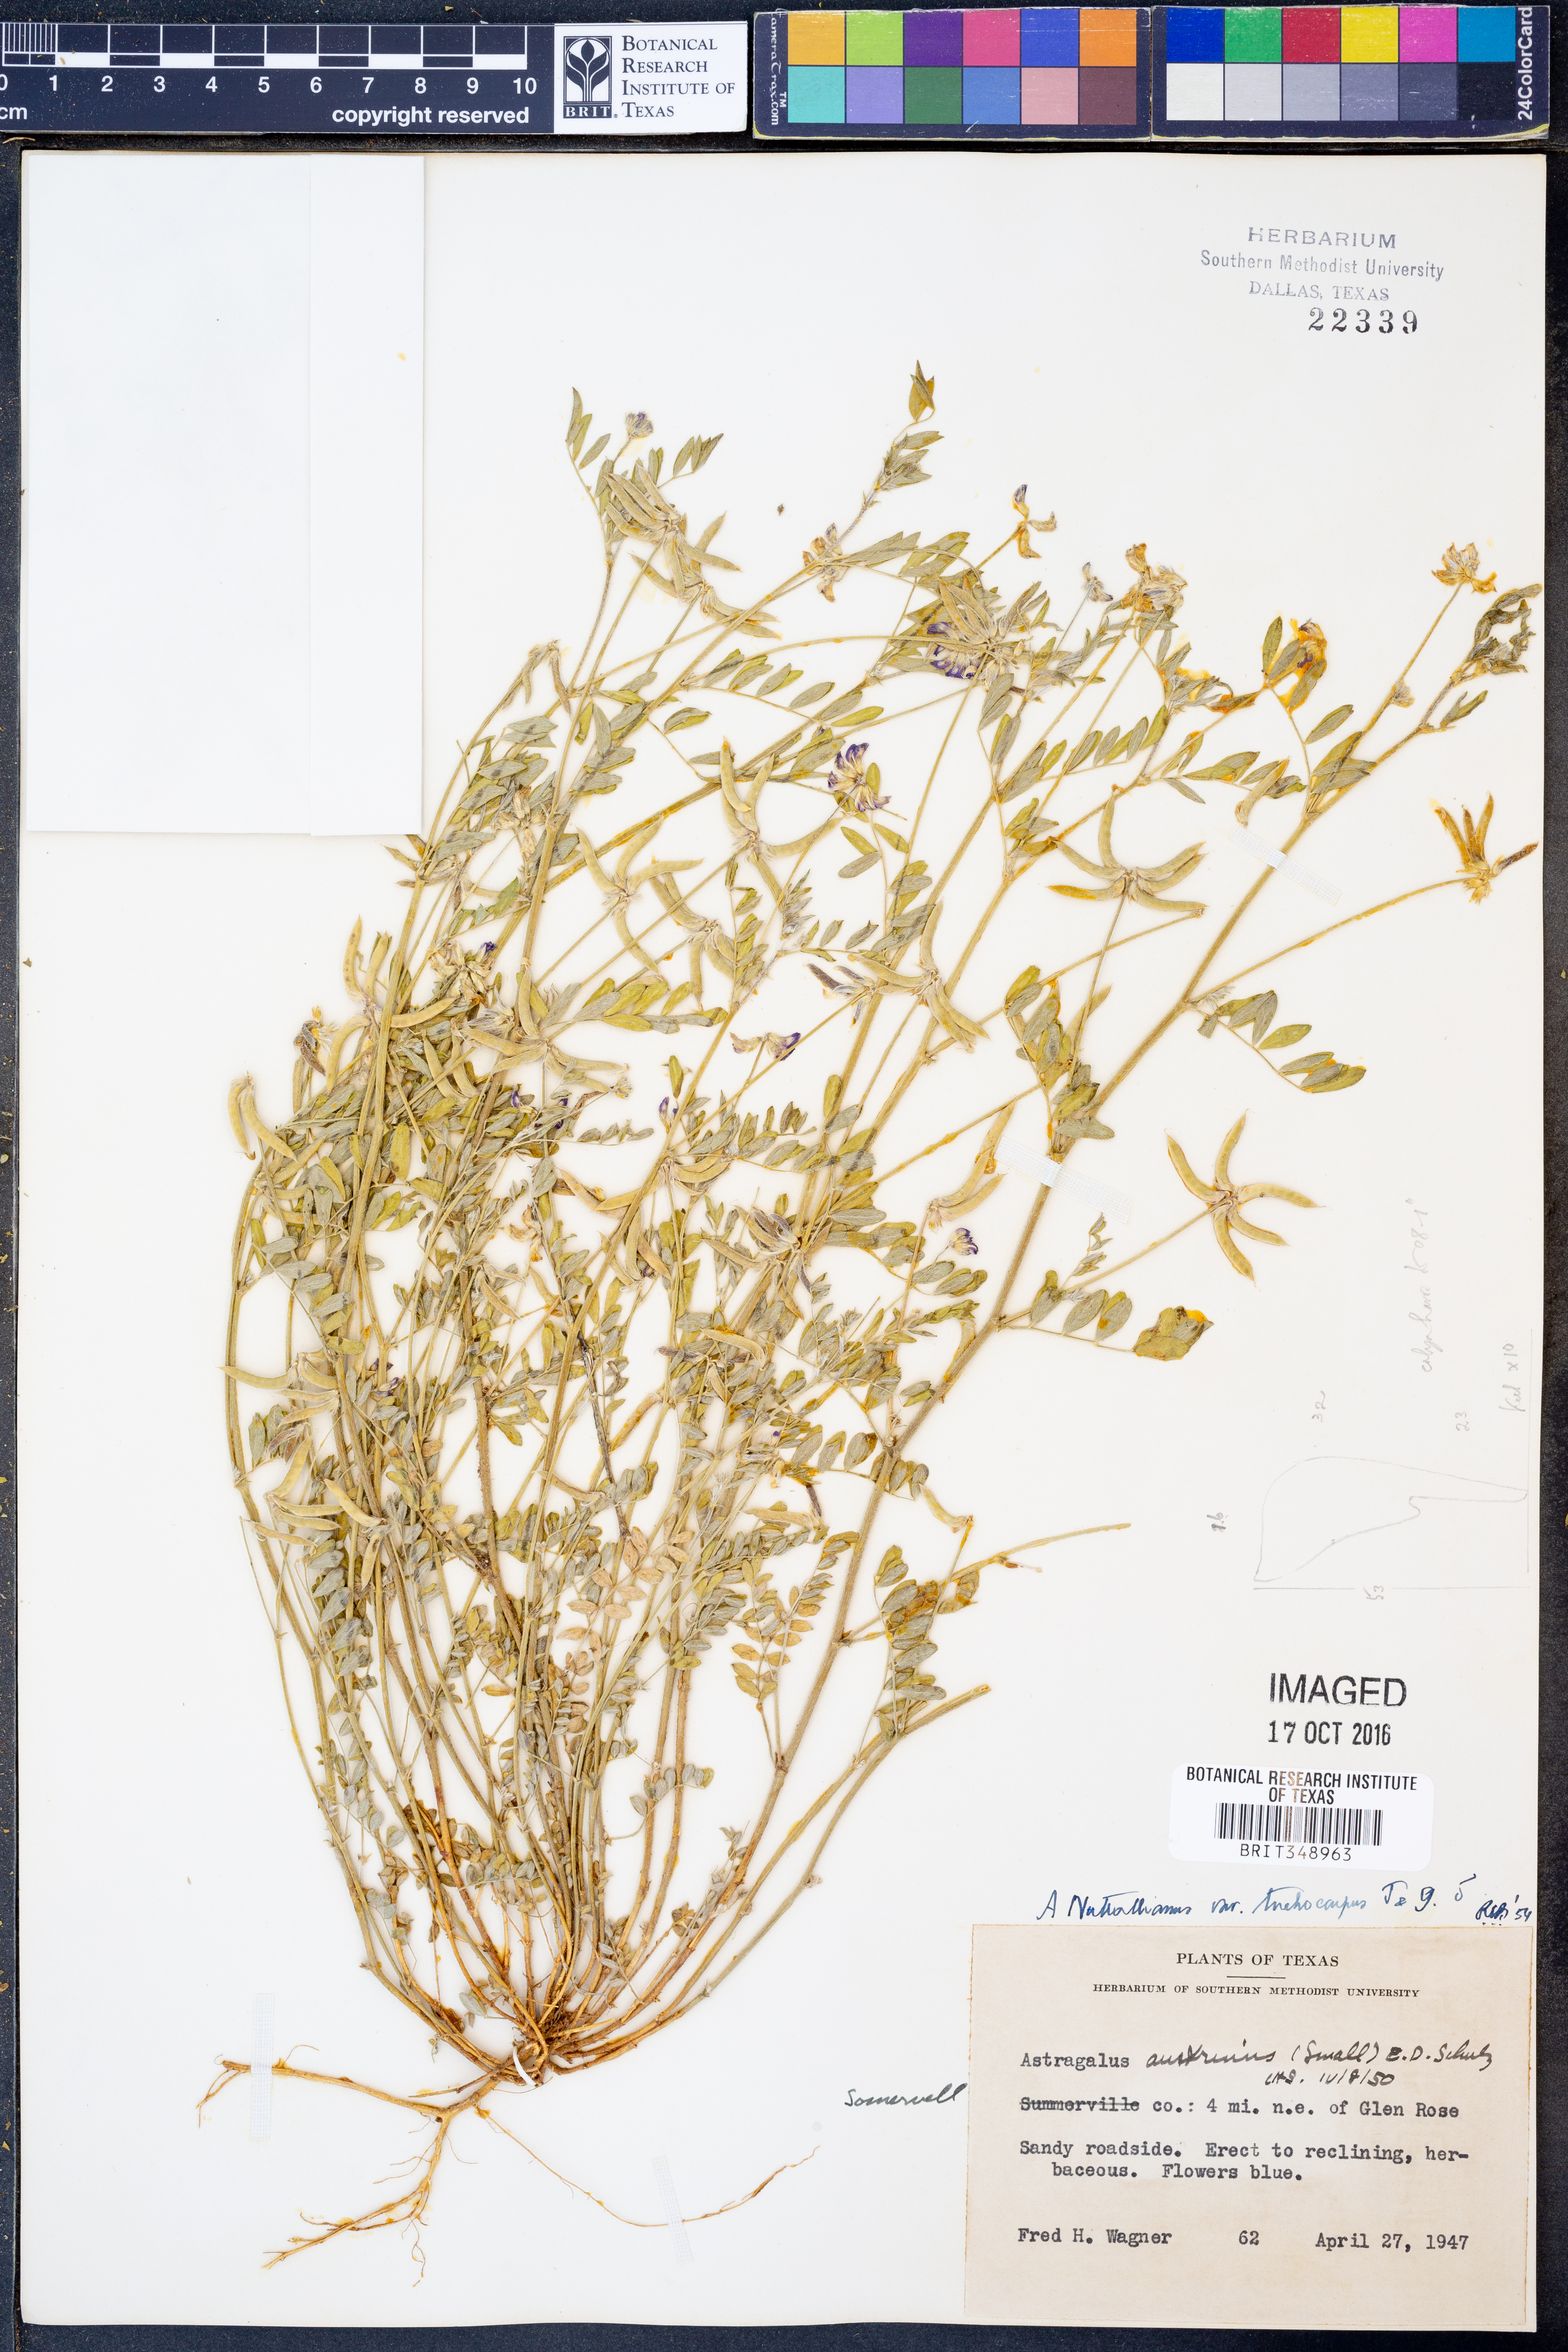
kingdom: Plantae
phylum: Tracheophyta
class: Magnoliopsida
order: Fabales
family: Fabaceae
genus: Astragalus
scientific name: Astragalus nuttallianus
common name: Smallflowered milkvetch
